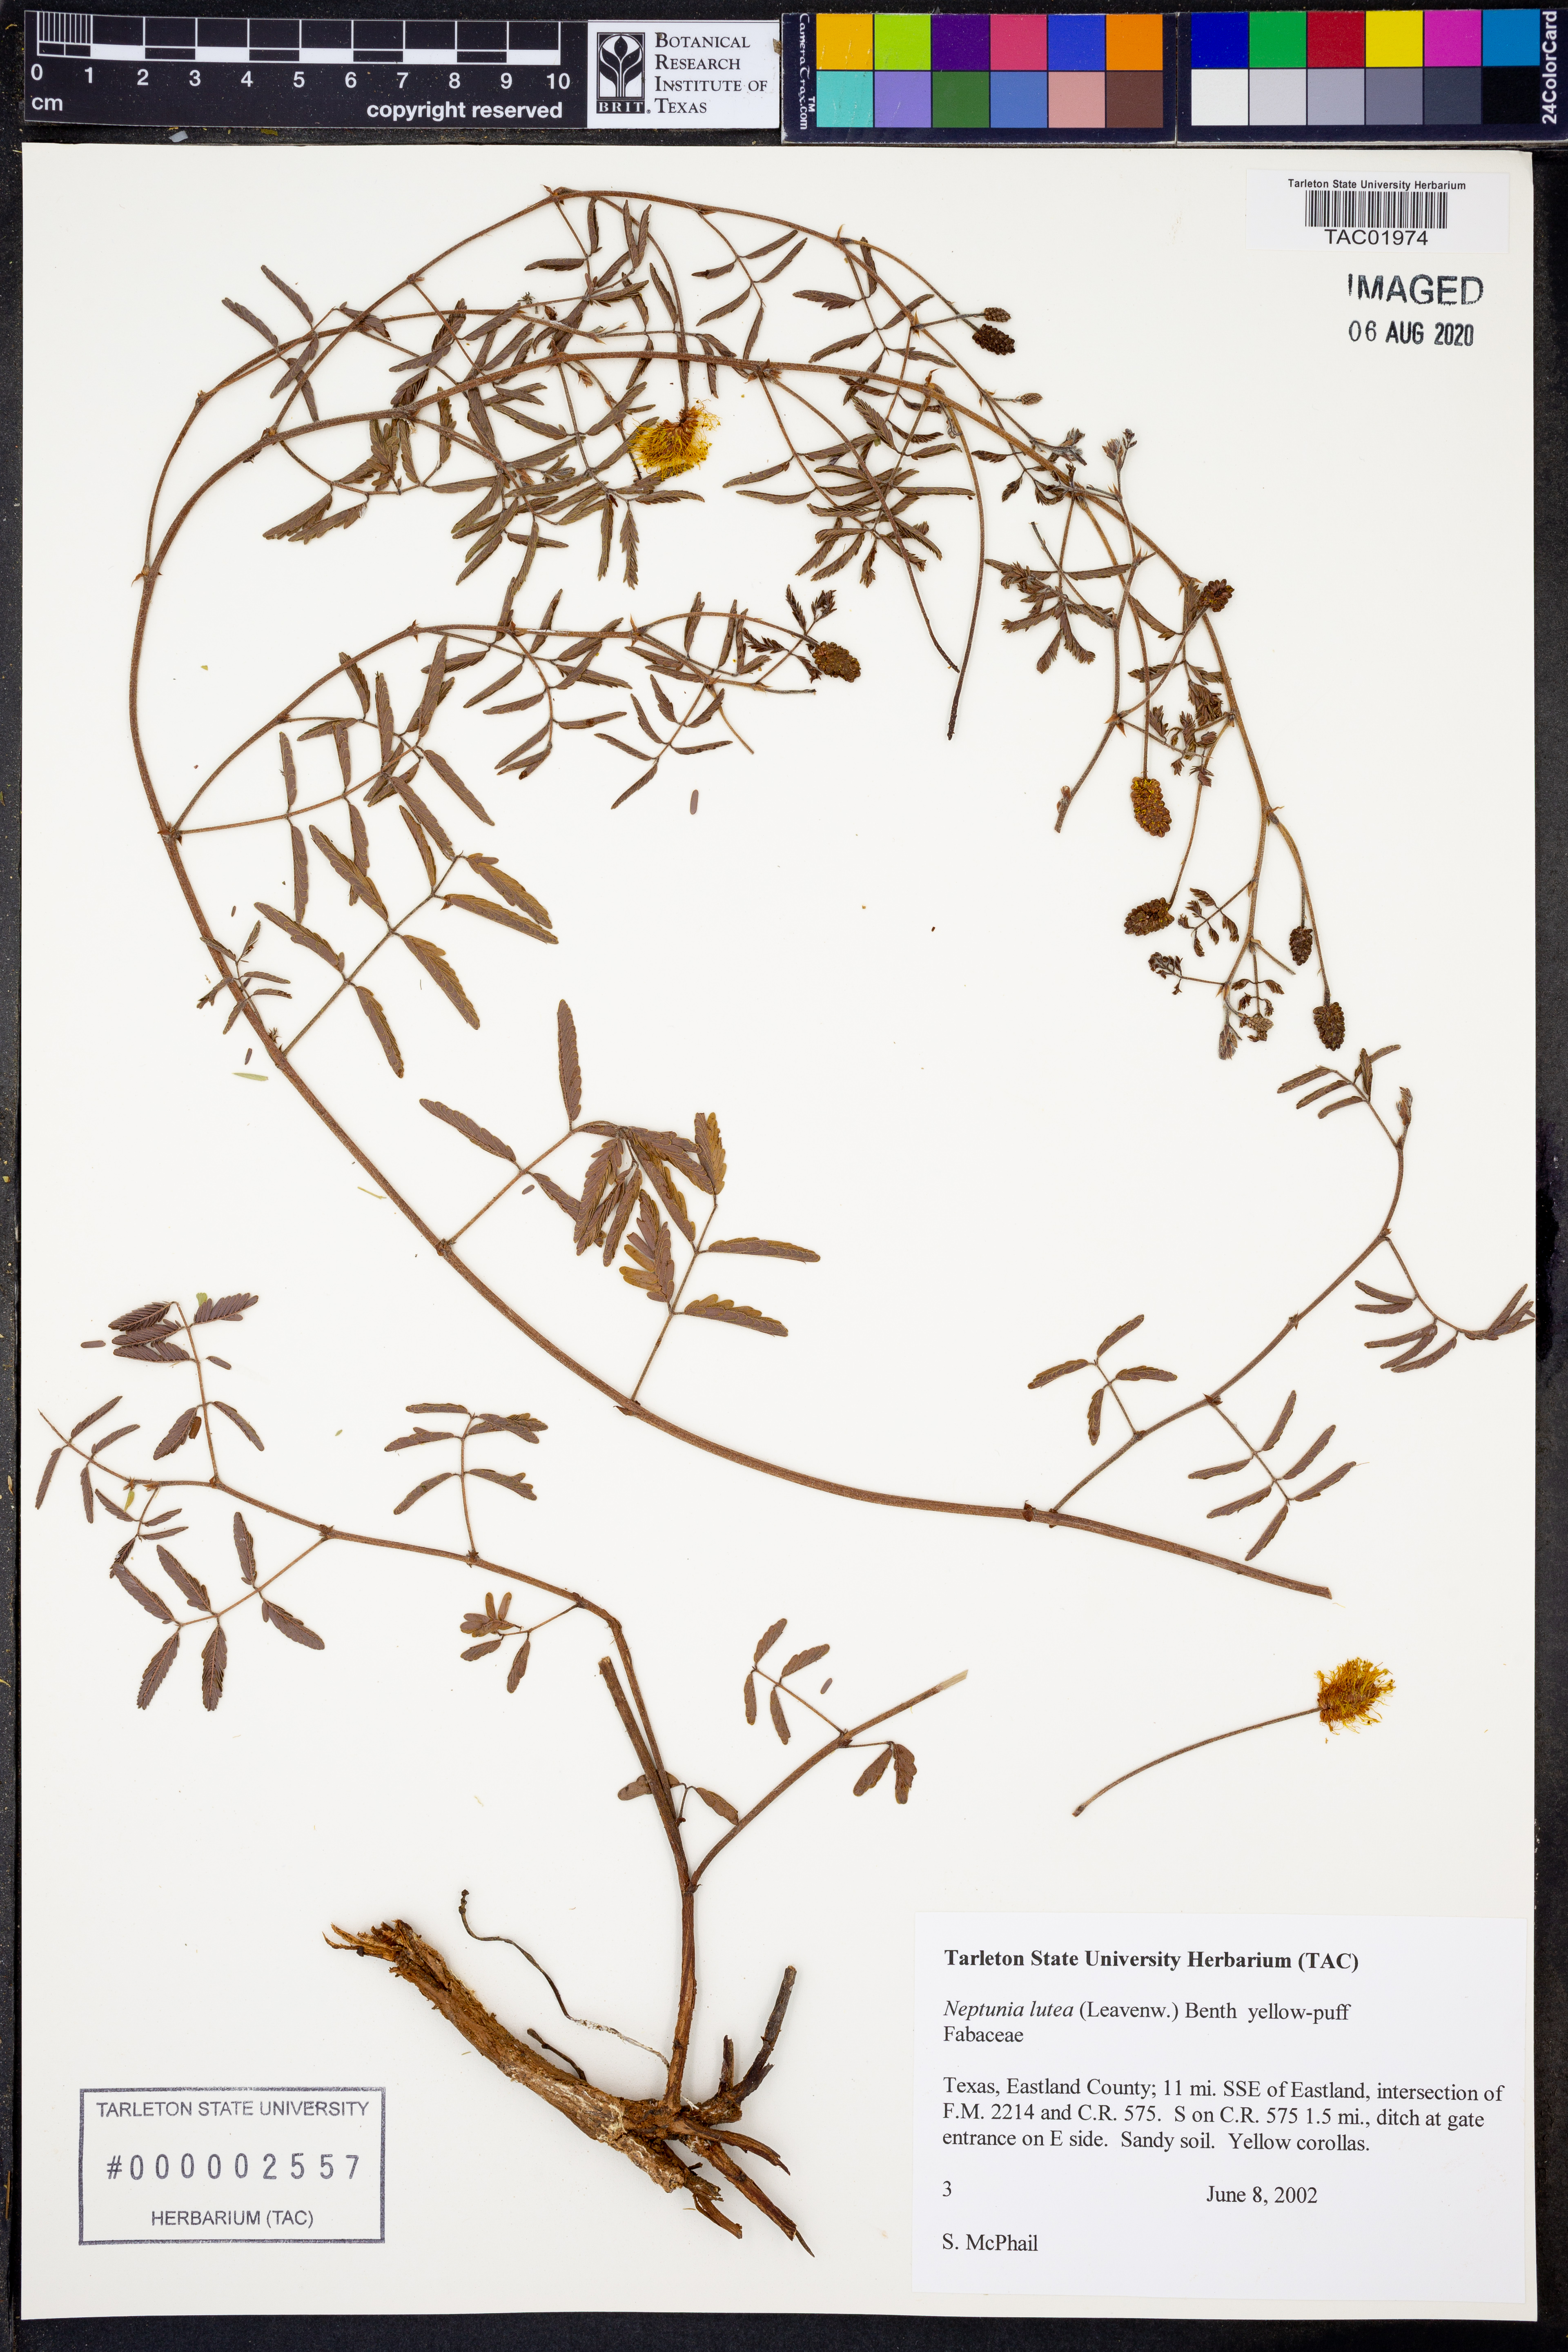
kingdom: Plantae
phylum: Tracheophyta
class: Magnoliopsida
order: Fabales
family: Fabaceae
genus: Neptunia
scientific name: Neptunia lutea
